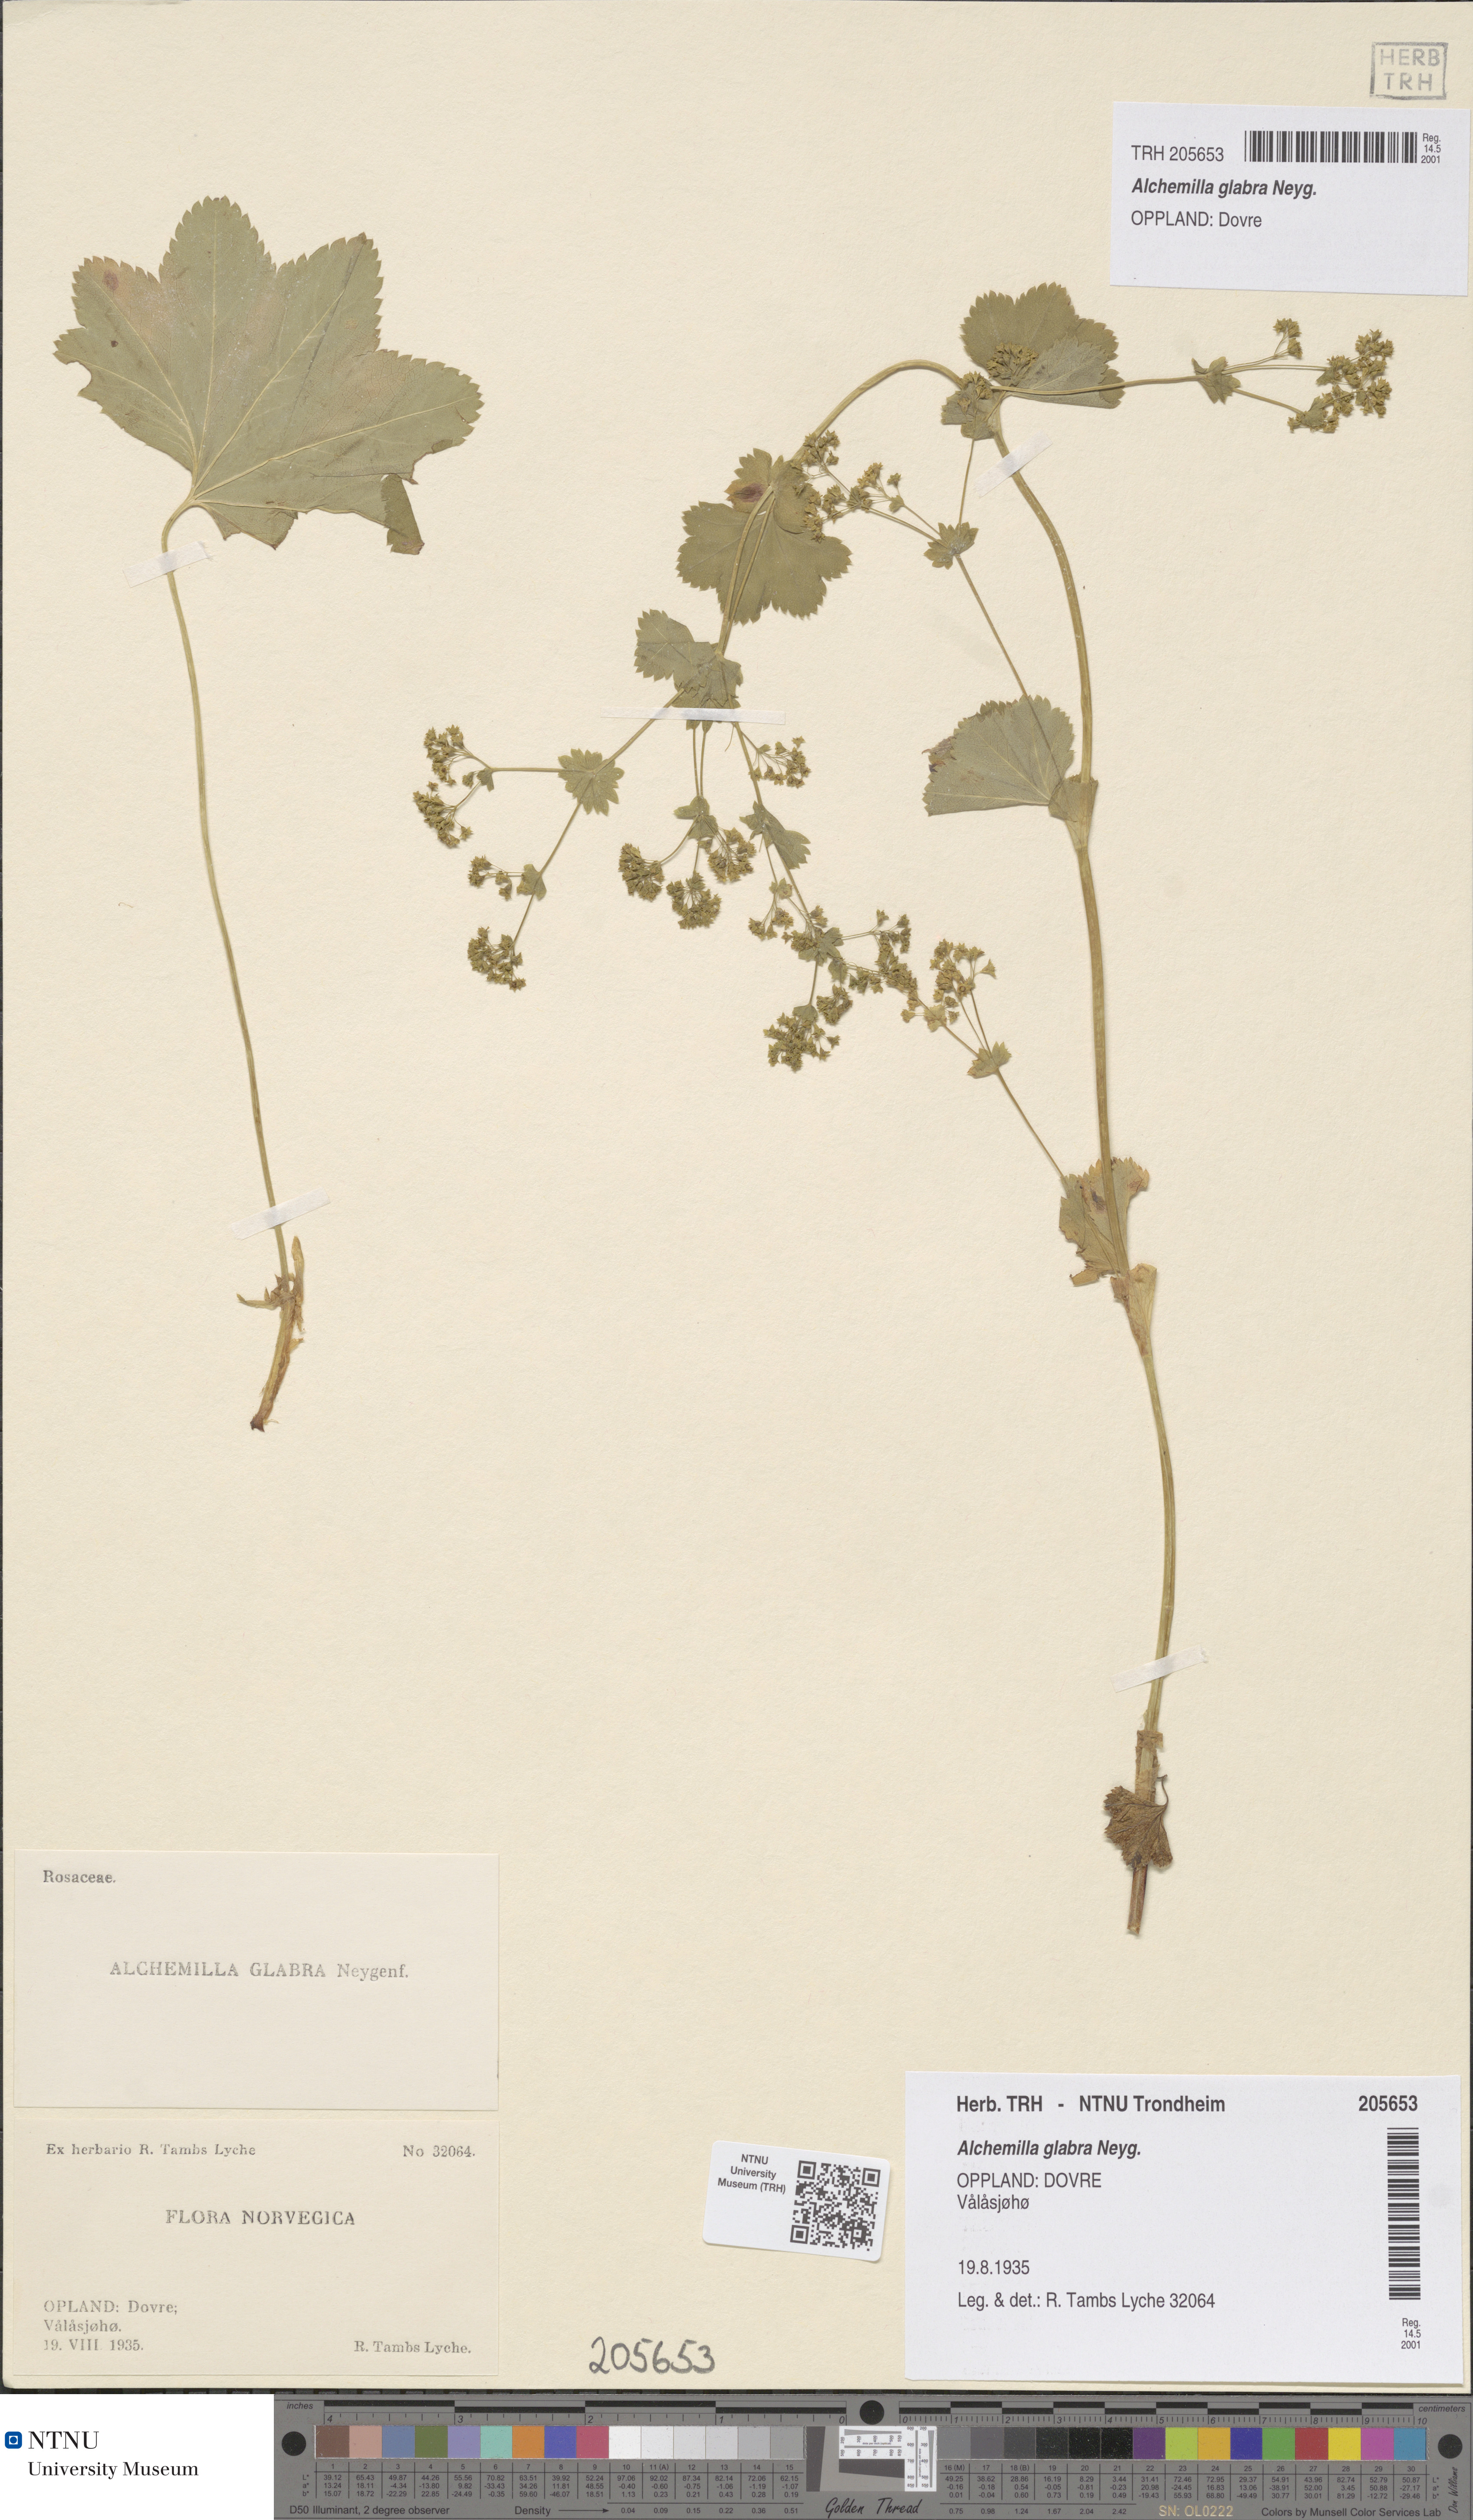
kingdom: Plantae
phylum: Tracheophyta
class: Magnoliopsida
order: Rosales
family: Rosaceae
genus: Alchemilla
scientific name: Alchemilla glabra
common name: Smooth lady's-mantle
